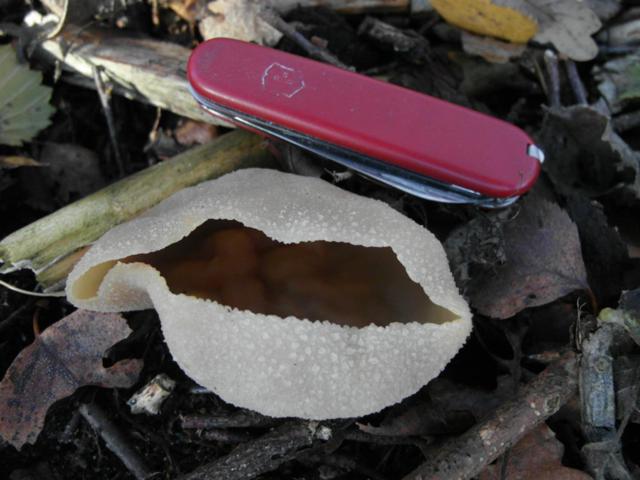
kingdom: Fungi
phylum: Ascomycota
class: Pezizomycetes
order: Pezizales
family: Pezizaceae
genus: Peziza
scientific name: Peziza varia
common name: Ved-bægersvamp
